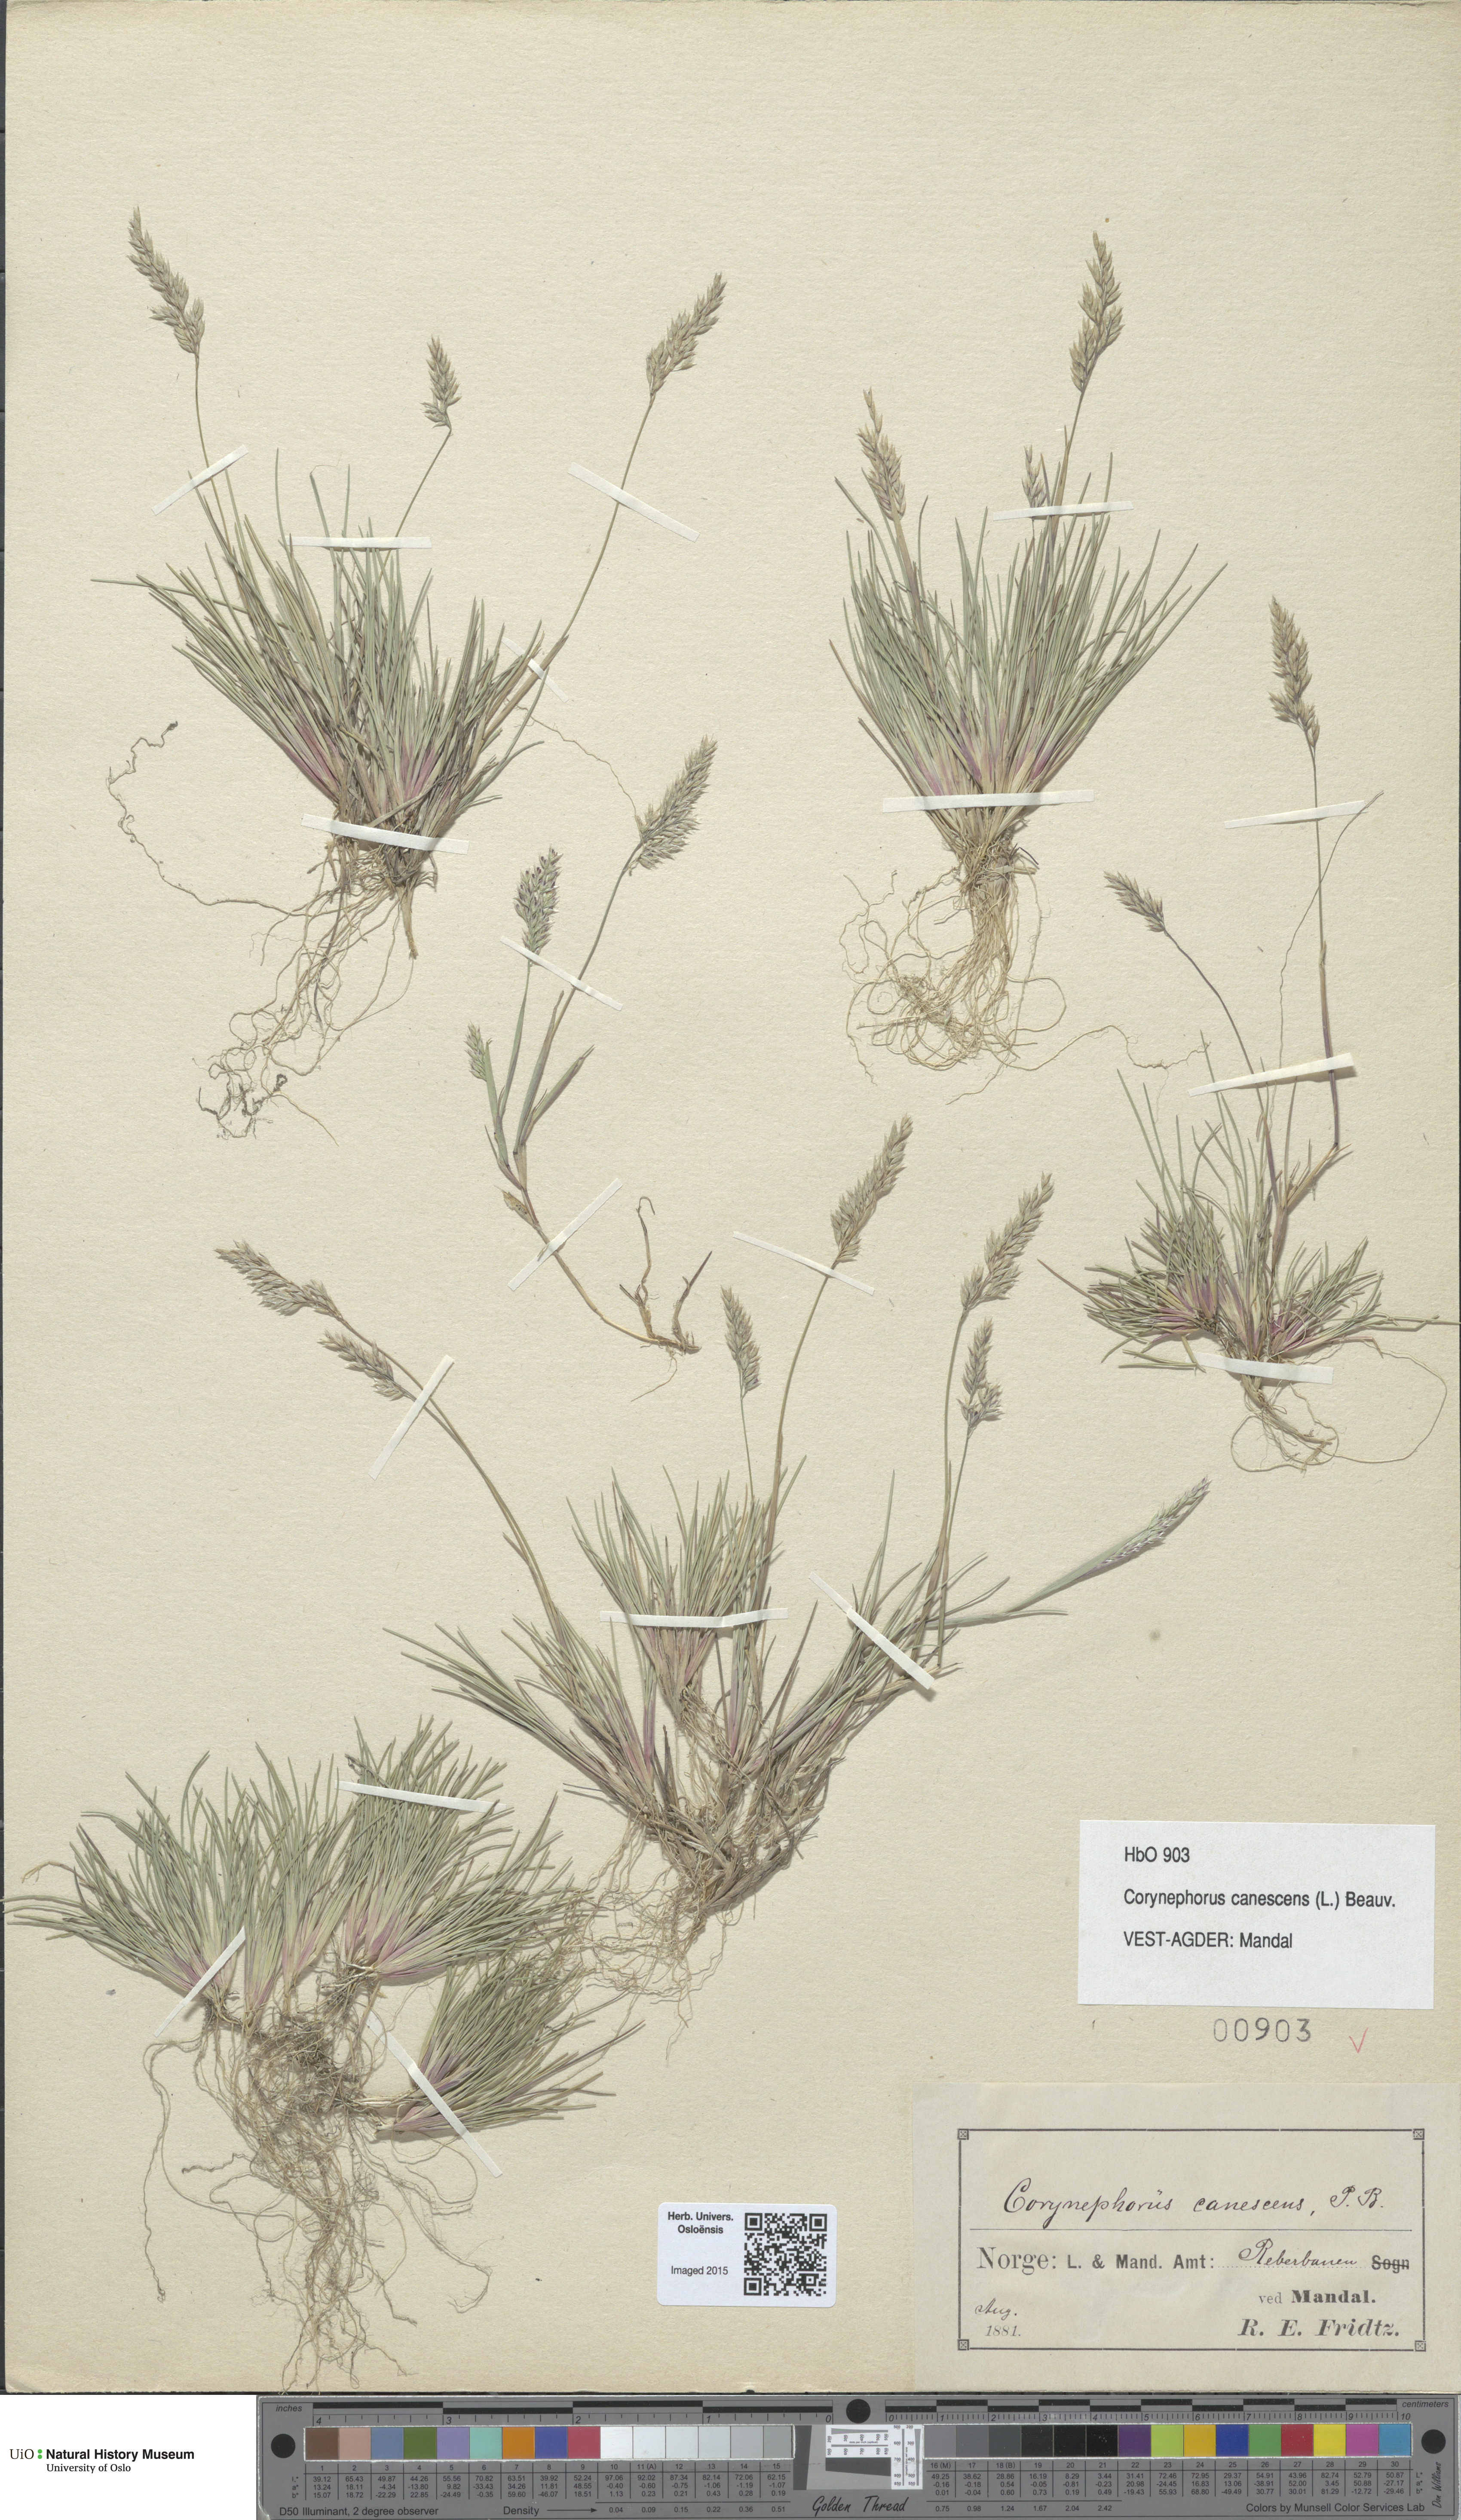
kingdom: Plantae
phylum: Tracheophyta
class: Liliopsida
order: Poales
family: Poaceae
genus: Corynephorus
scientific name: Corynephorus canescens
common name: Grey hair-grass
